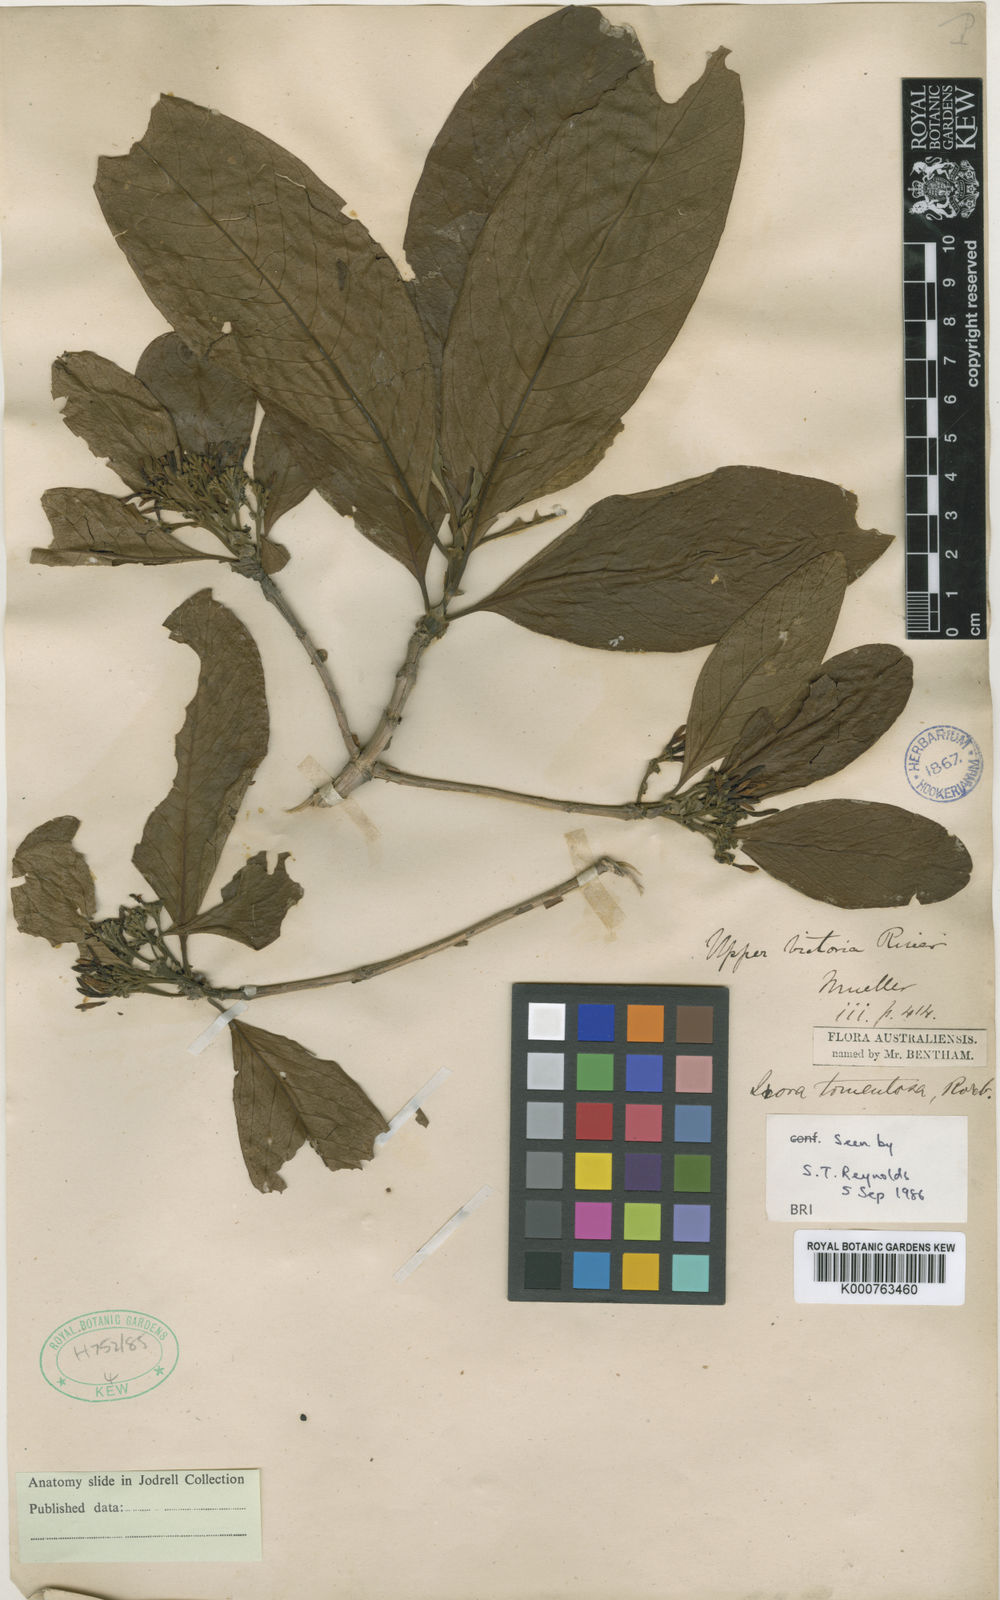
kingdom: Plantae
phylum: Tracheophyta
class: Magnoliopsida
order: Gentianales
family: Rubiaceae
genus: Pavetta
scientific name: Pavetta muelleri
